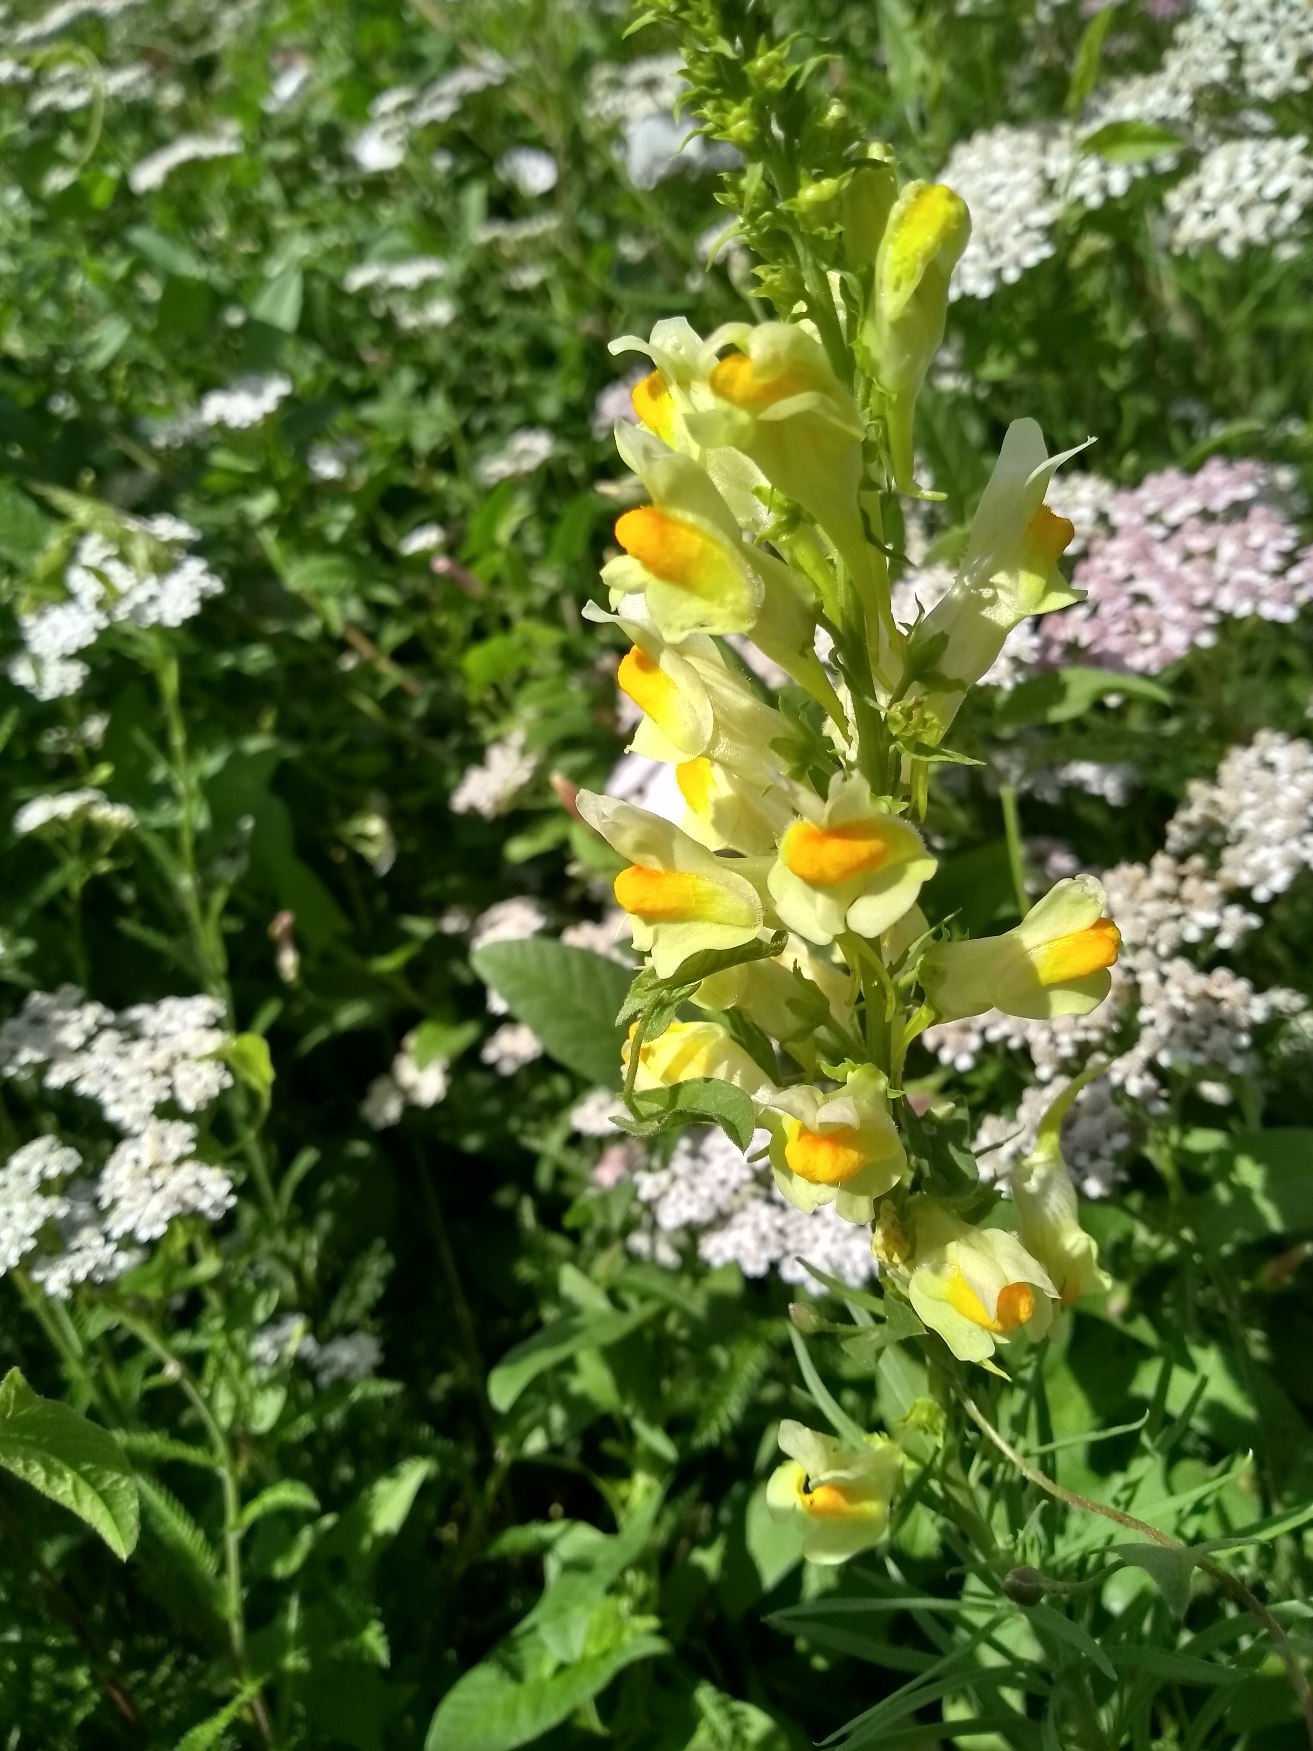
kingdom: Plantae
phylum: Tracheophyta
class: Magnoliopsida
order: Lamiales
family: Plantaginaceae
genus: Linaria
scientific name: Linaria vulgaris
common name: Almindelig torskemund
